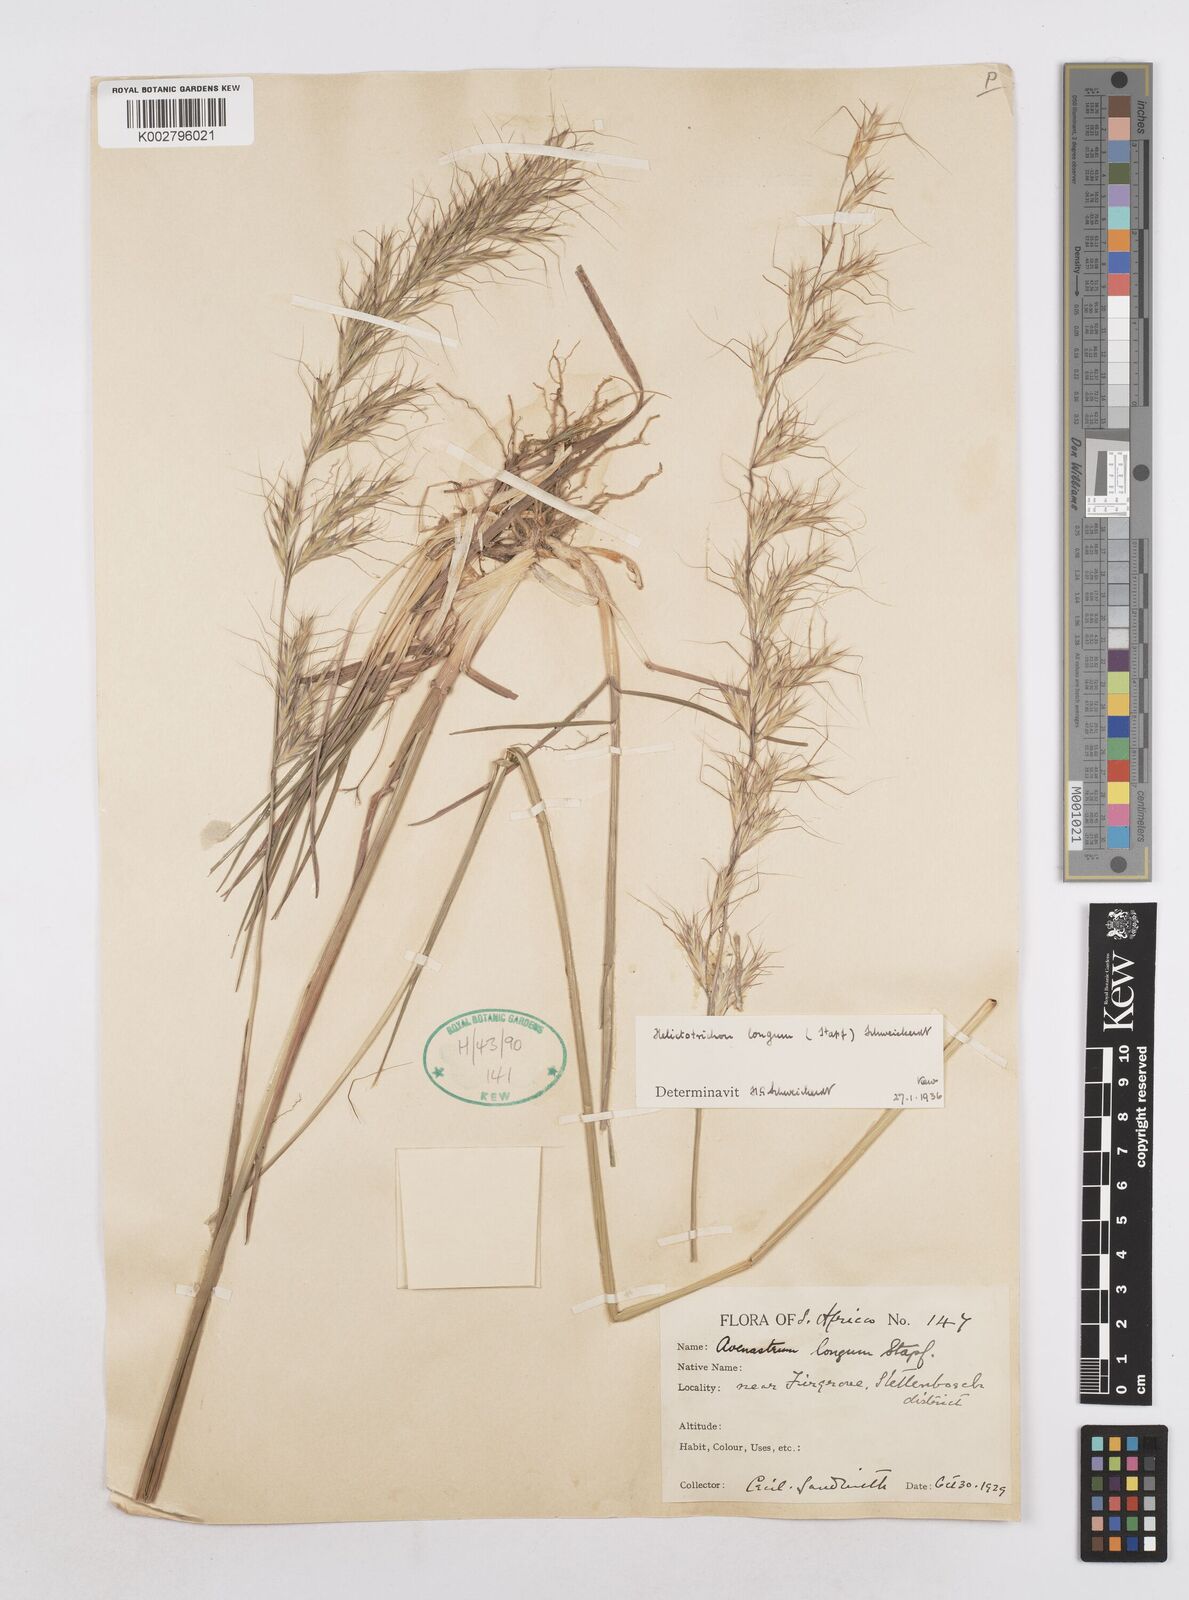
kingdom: Plantae
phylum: Tracheophyta
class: Liliopsida
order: Poales
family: Poaceae
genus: Trisetopsis
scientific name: Trisetopsis longa
